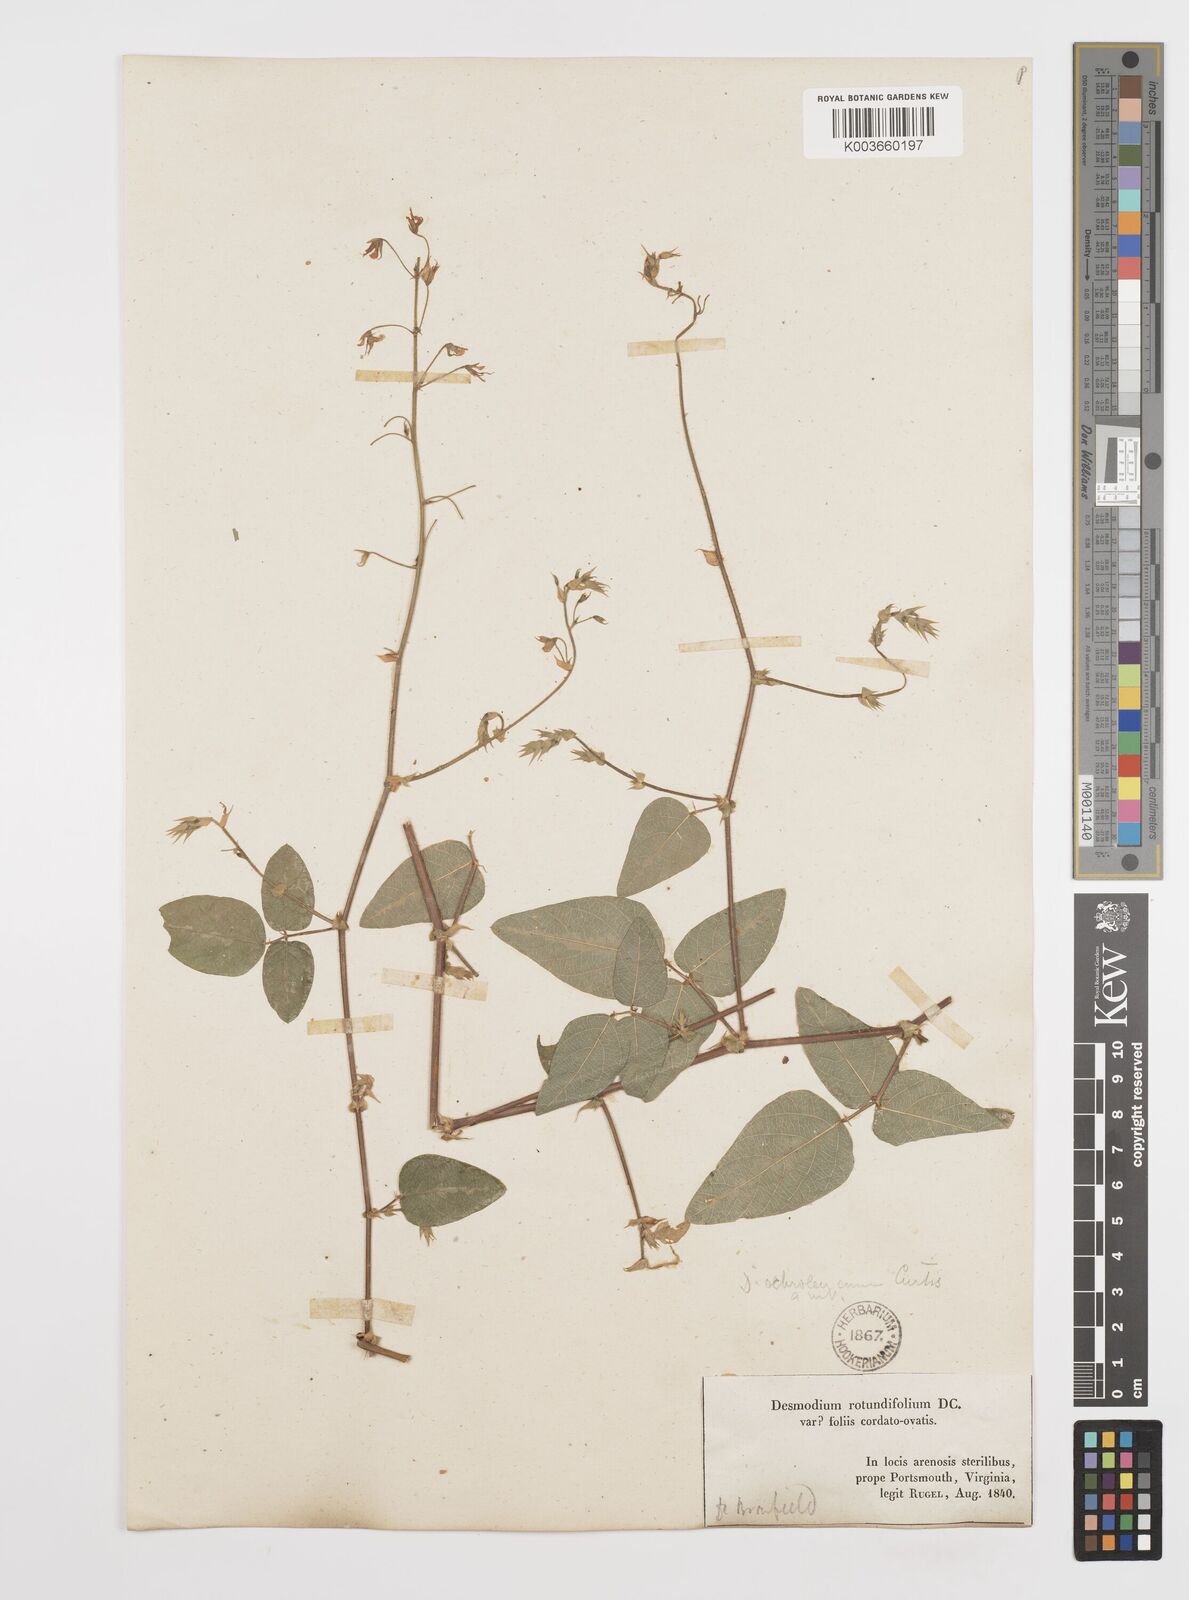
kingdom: Plantae
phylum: Tracheophyta
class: Magnoliopsida
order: Fabales
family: Fabaceae
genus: Desmodium
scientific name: Desmodium ochroleucum
